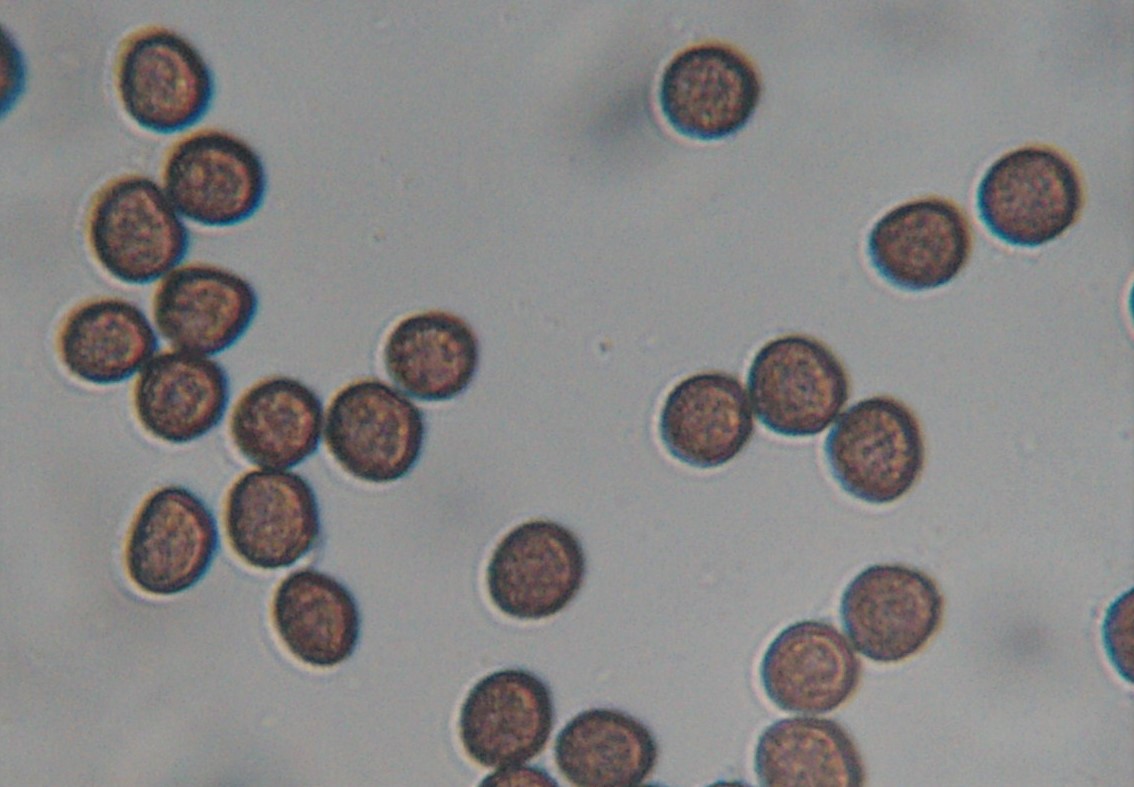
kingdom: Protozoa
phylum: Mycetozoa
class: Myxomycetes
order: Physarales
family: Physaraceae
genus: Badhamia
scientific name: Badhamia utricularis
